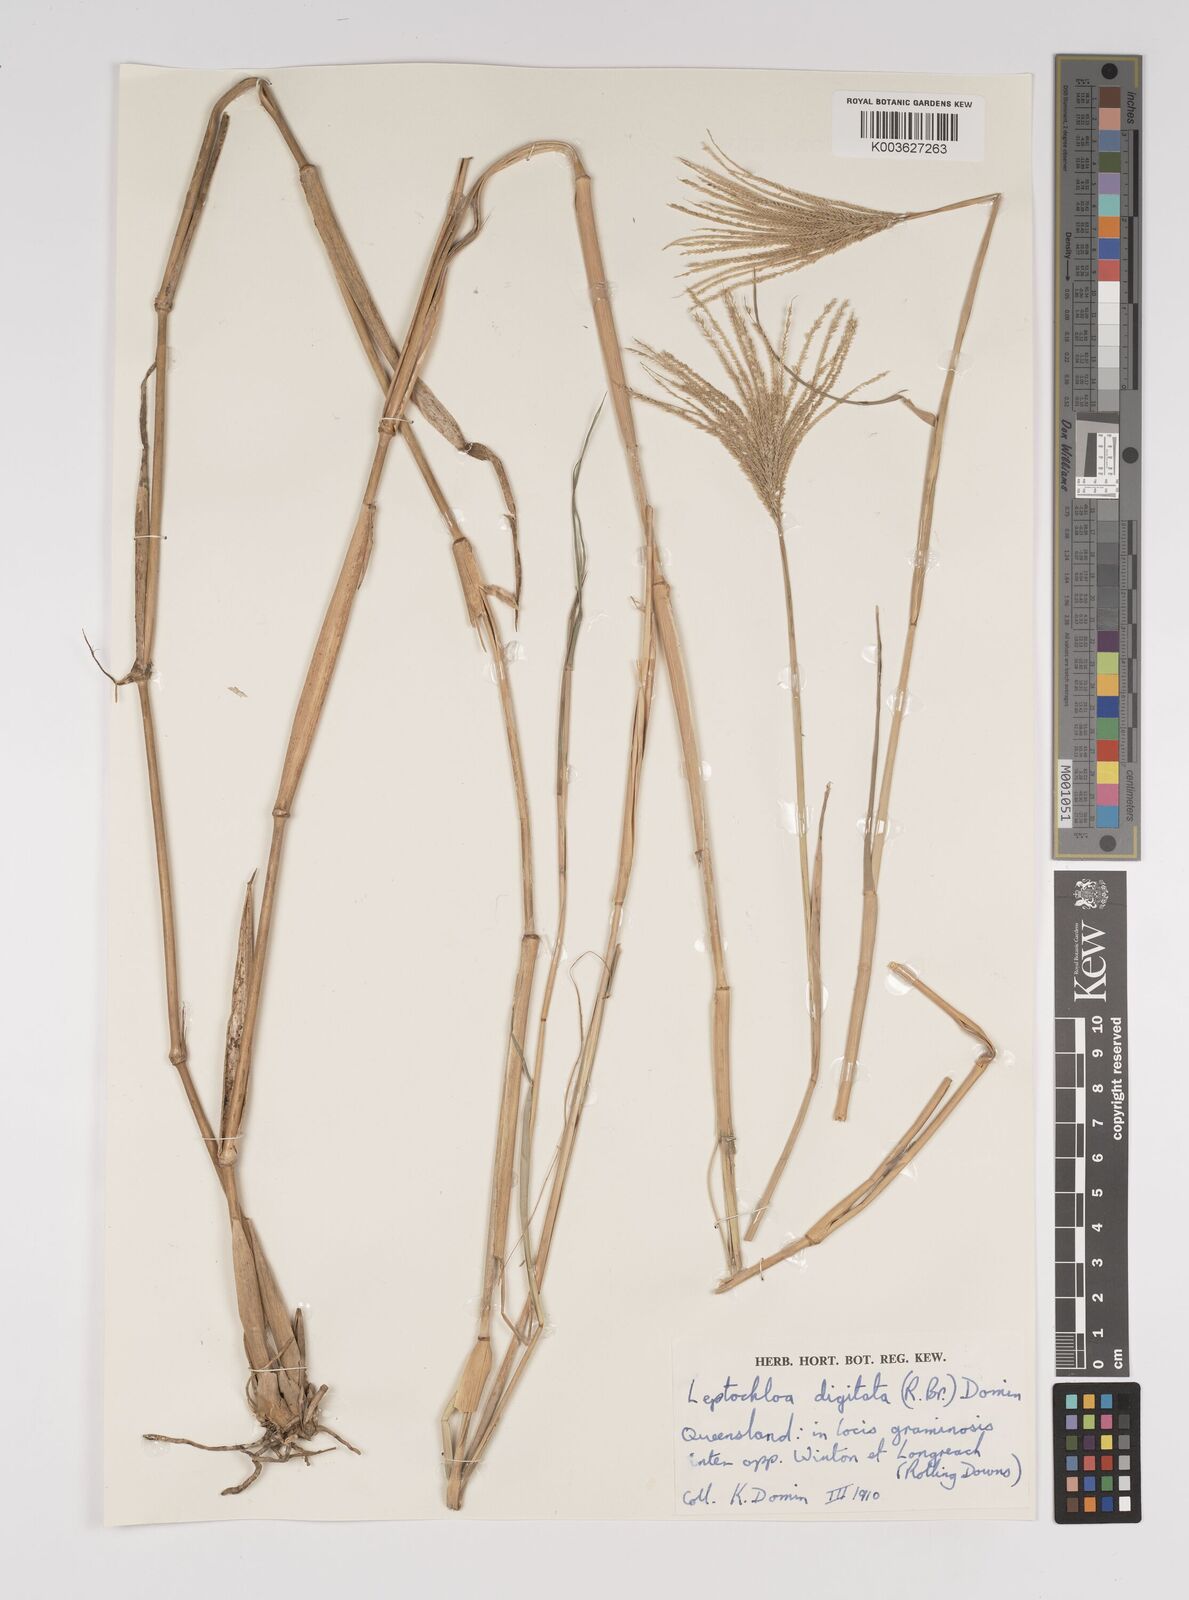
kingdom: Plantae
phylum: Tracheophyta
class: Liliopsida
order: Poales
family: Poaceae
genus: Leptochloa
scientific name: Leptochloa digitata
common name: Finger sprangletop
